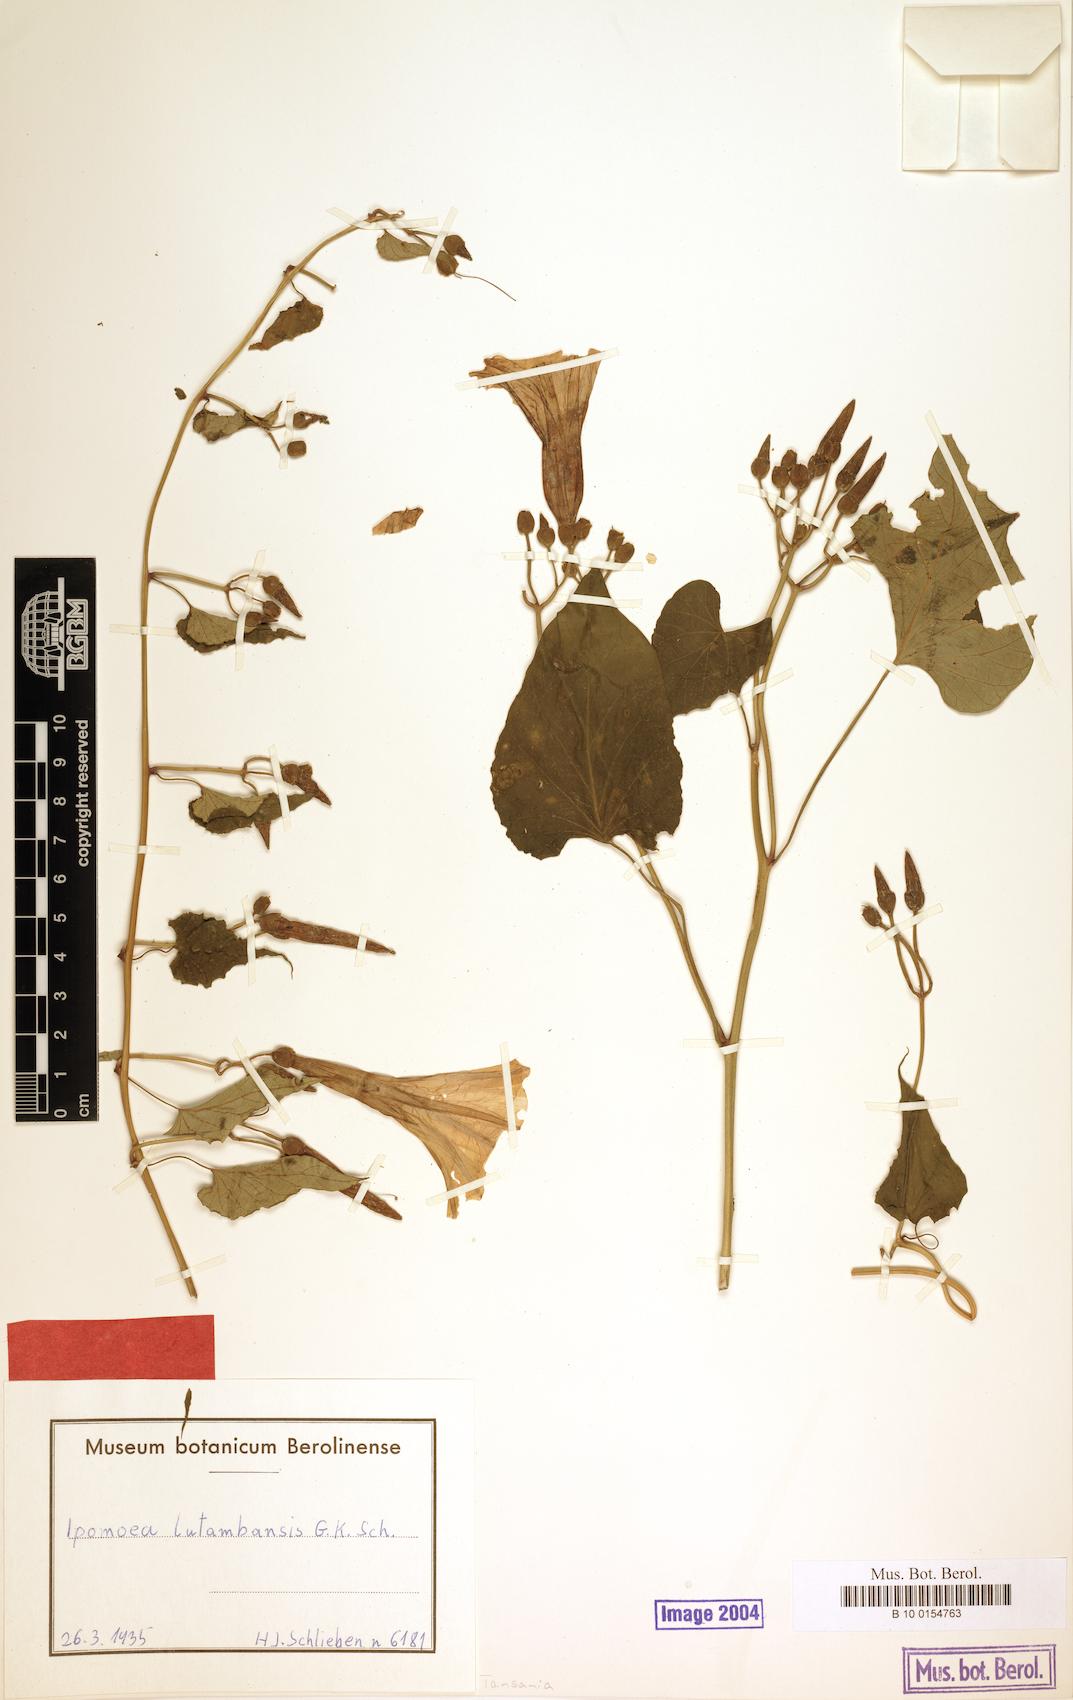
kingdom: Plantae
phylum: Tracheophyta
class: Magnoliopsida
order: Solanales
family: Convolvulaceae
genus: Stictocardia
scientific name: Stictocardia lutambensis
